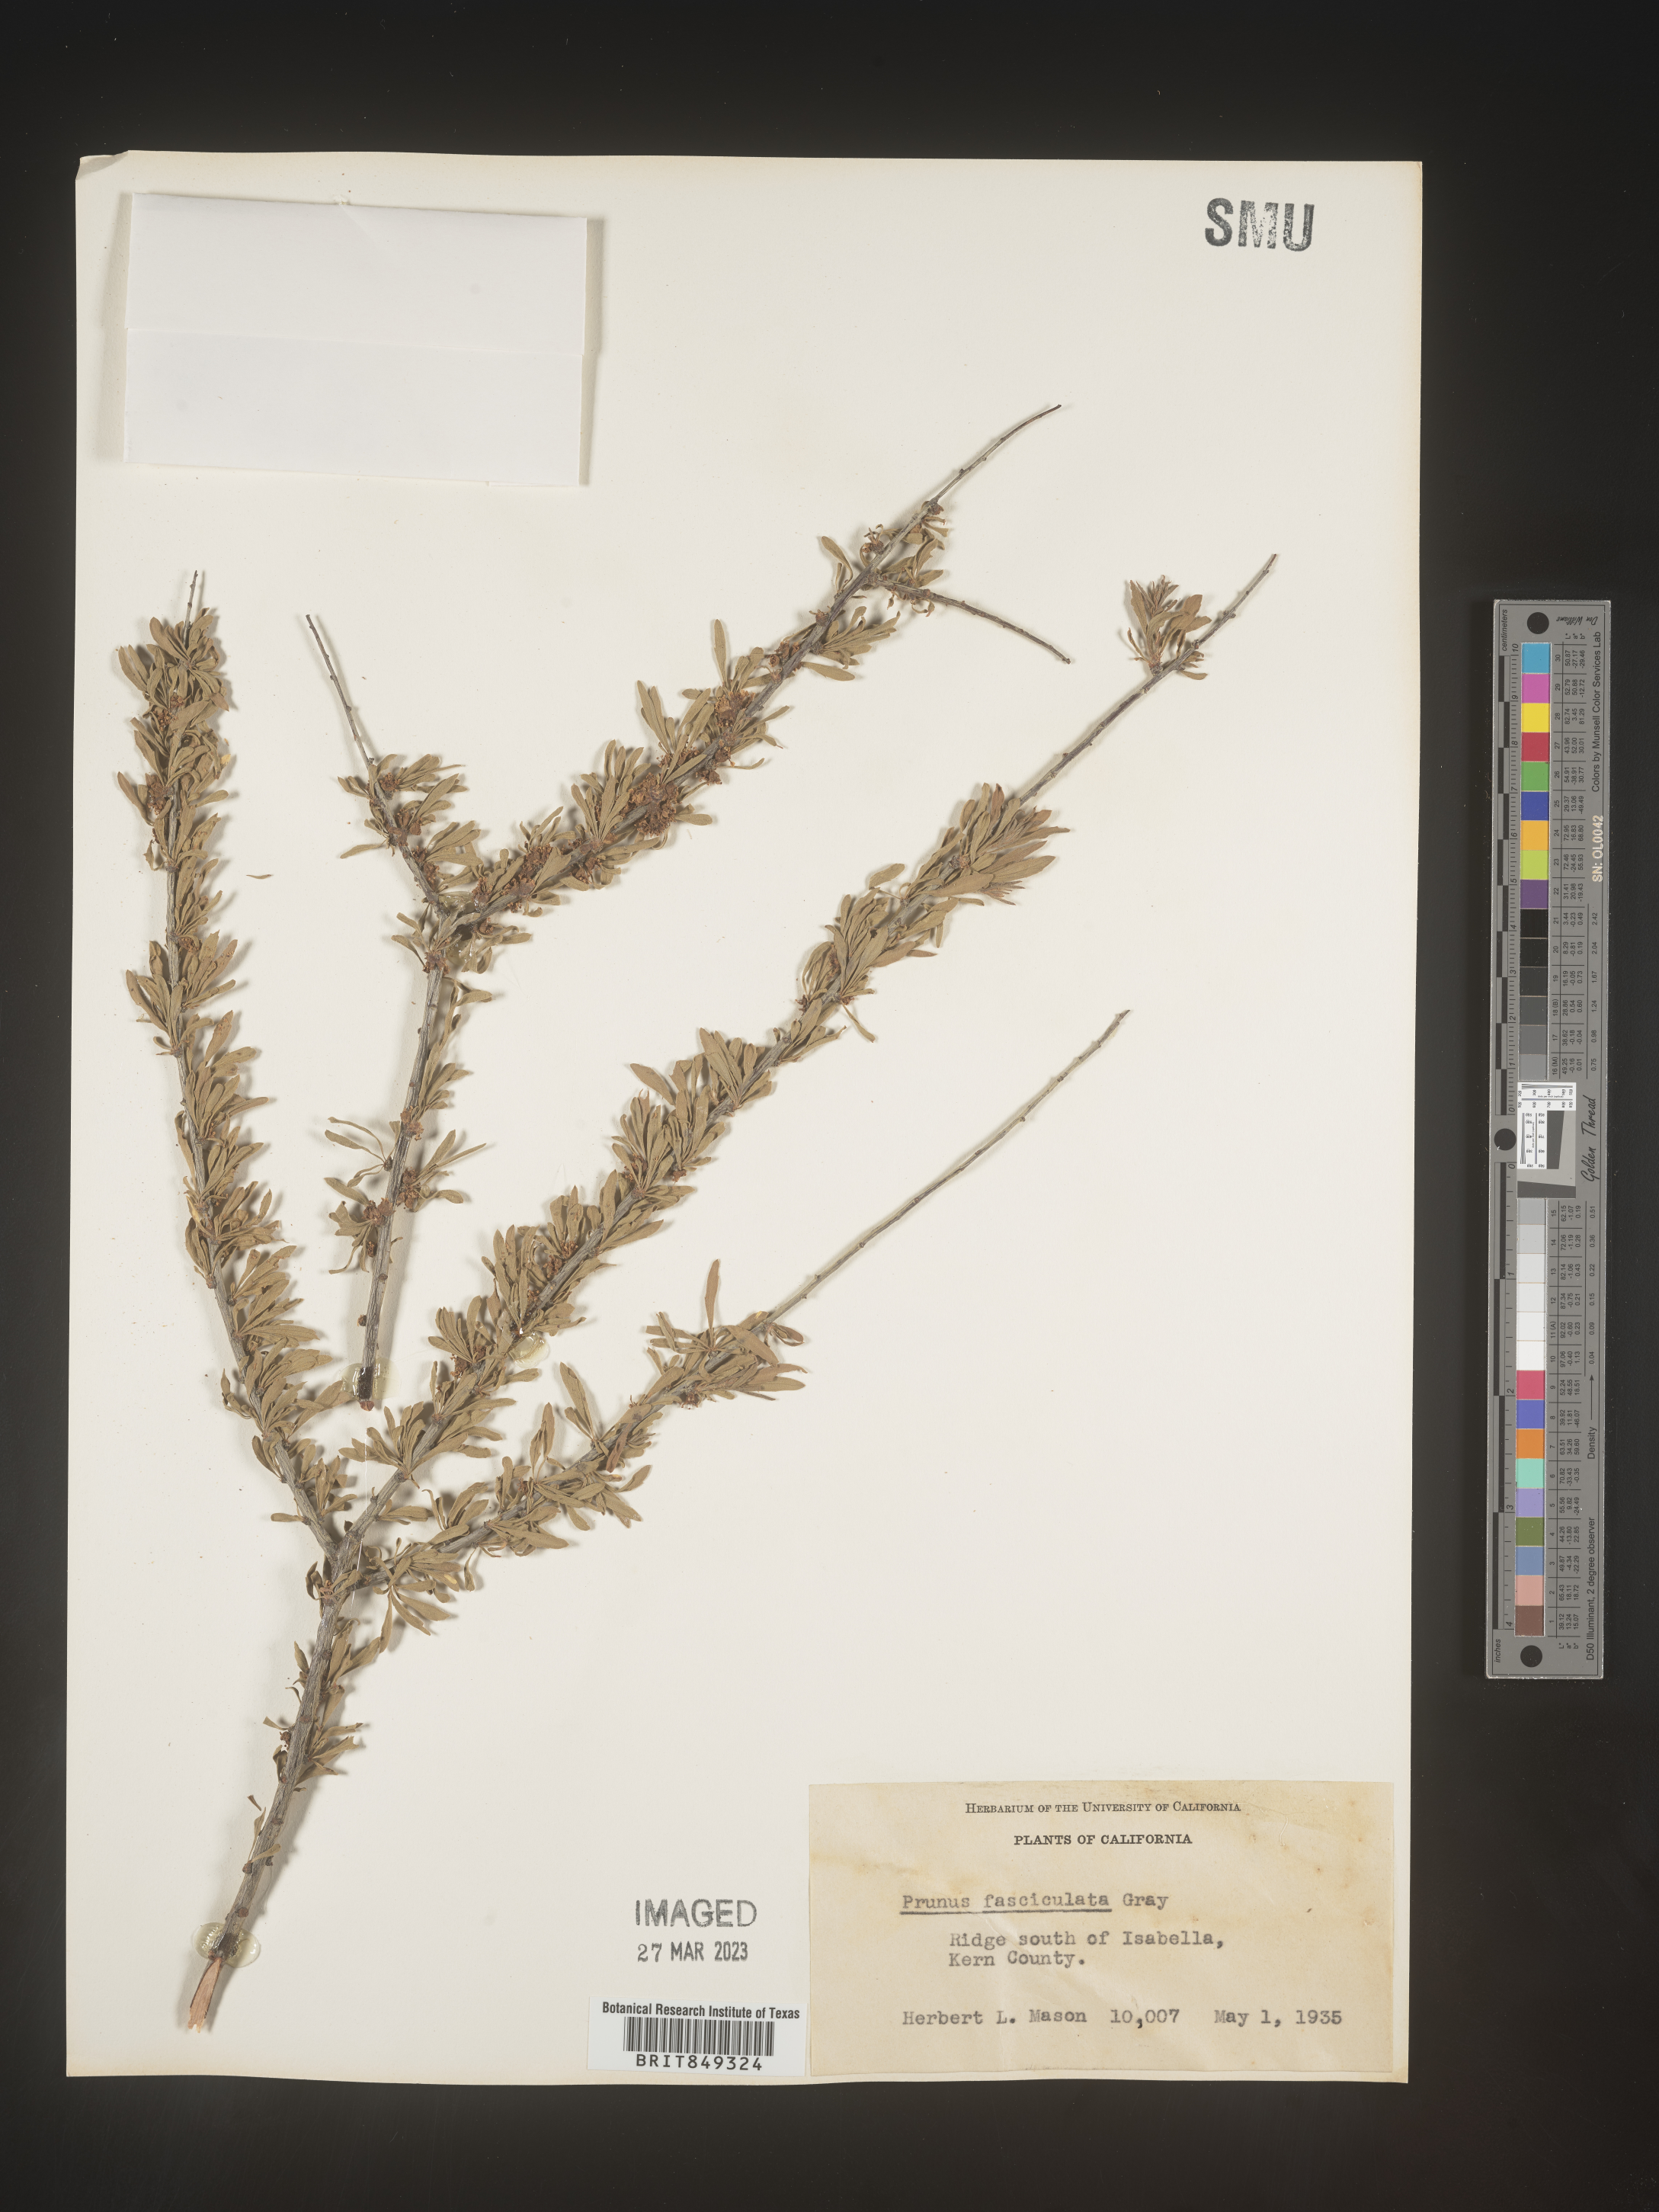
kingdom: Plantae
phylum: Tracheophyta
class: Magnoliopsida
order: Rosales
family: Rosaceae
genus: Prunus
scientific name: Prunus
